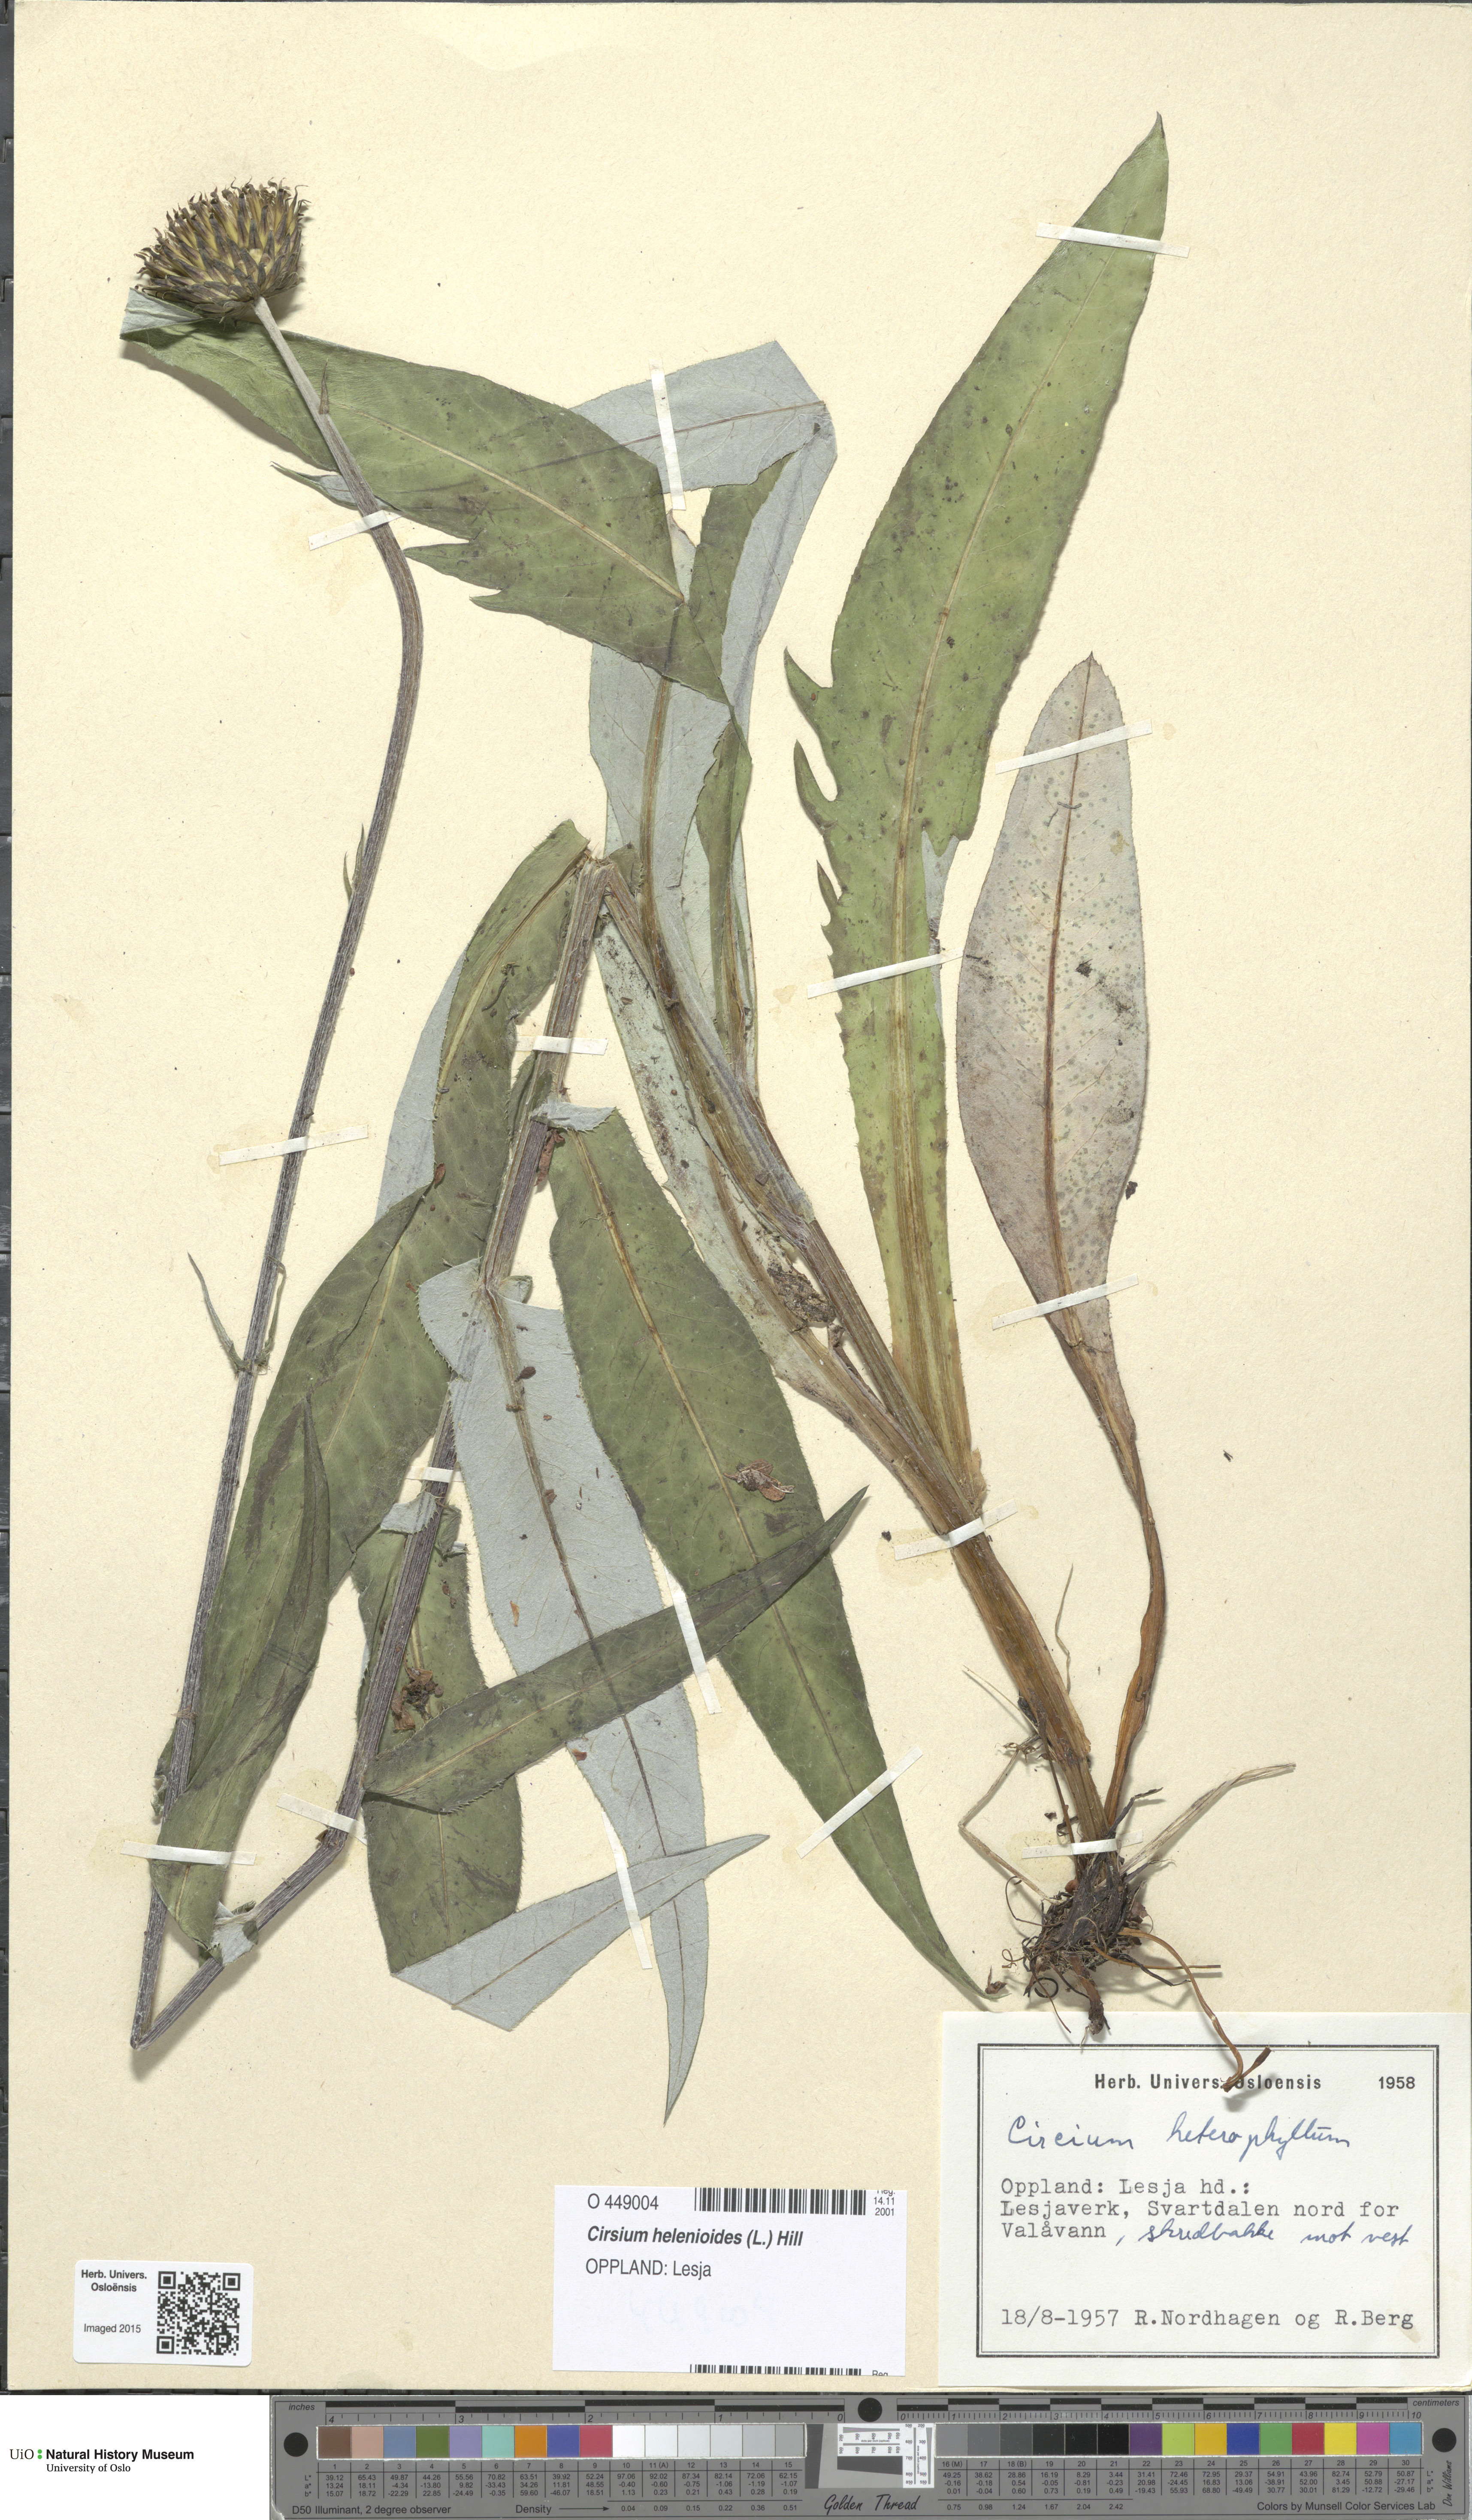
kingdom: Plantae
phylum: Tracheophyta
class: Magnoliopsida
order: Asterales
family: Asteraceae
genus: Cirsium
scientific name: Cirsium heterophyllum
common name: Melancholy thistle
